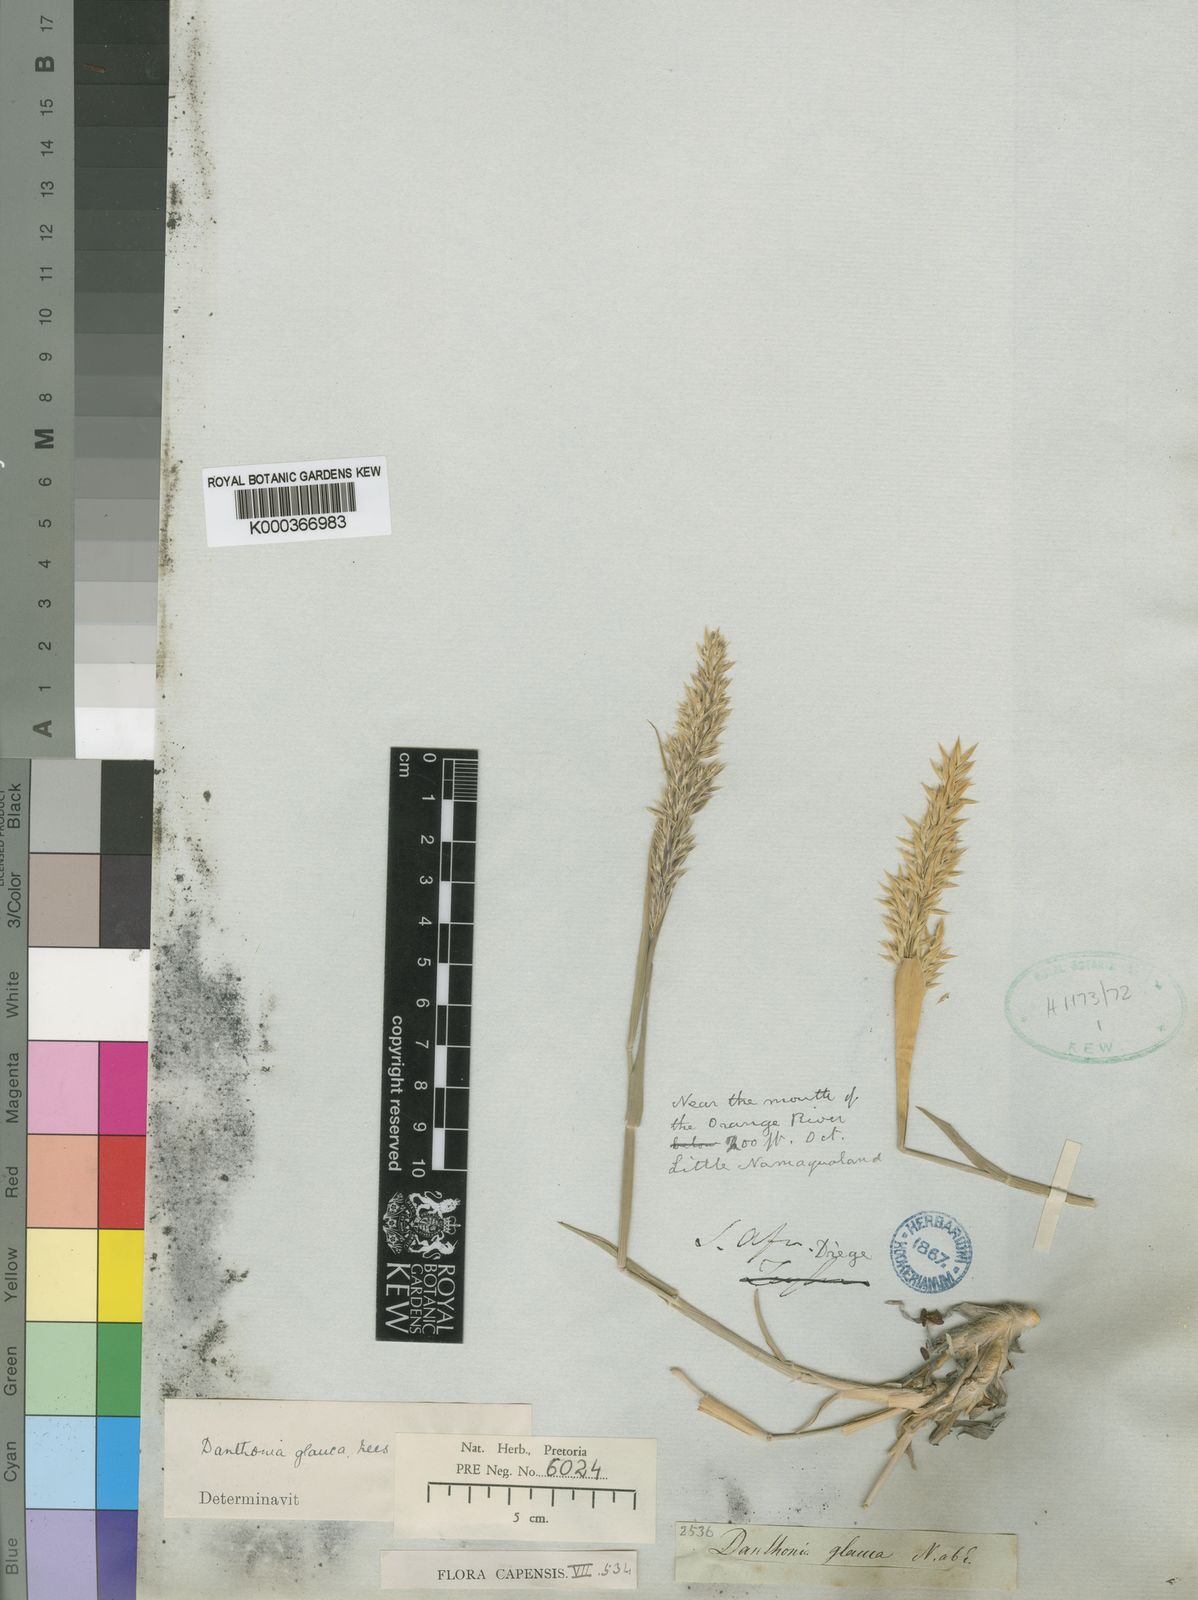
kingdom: Plantae
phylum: Tracheophyta
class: Liliopsida
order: Poales
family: Poaceae
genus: Centropodia
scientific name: Centropodia glauca
